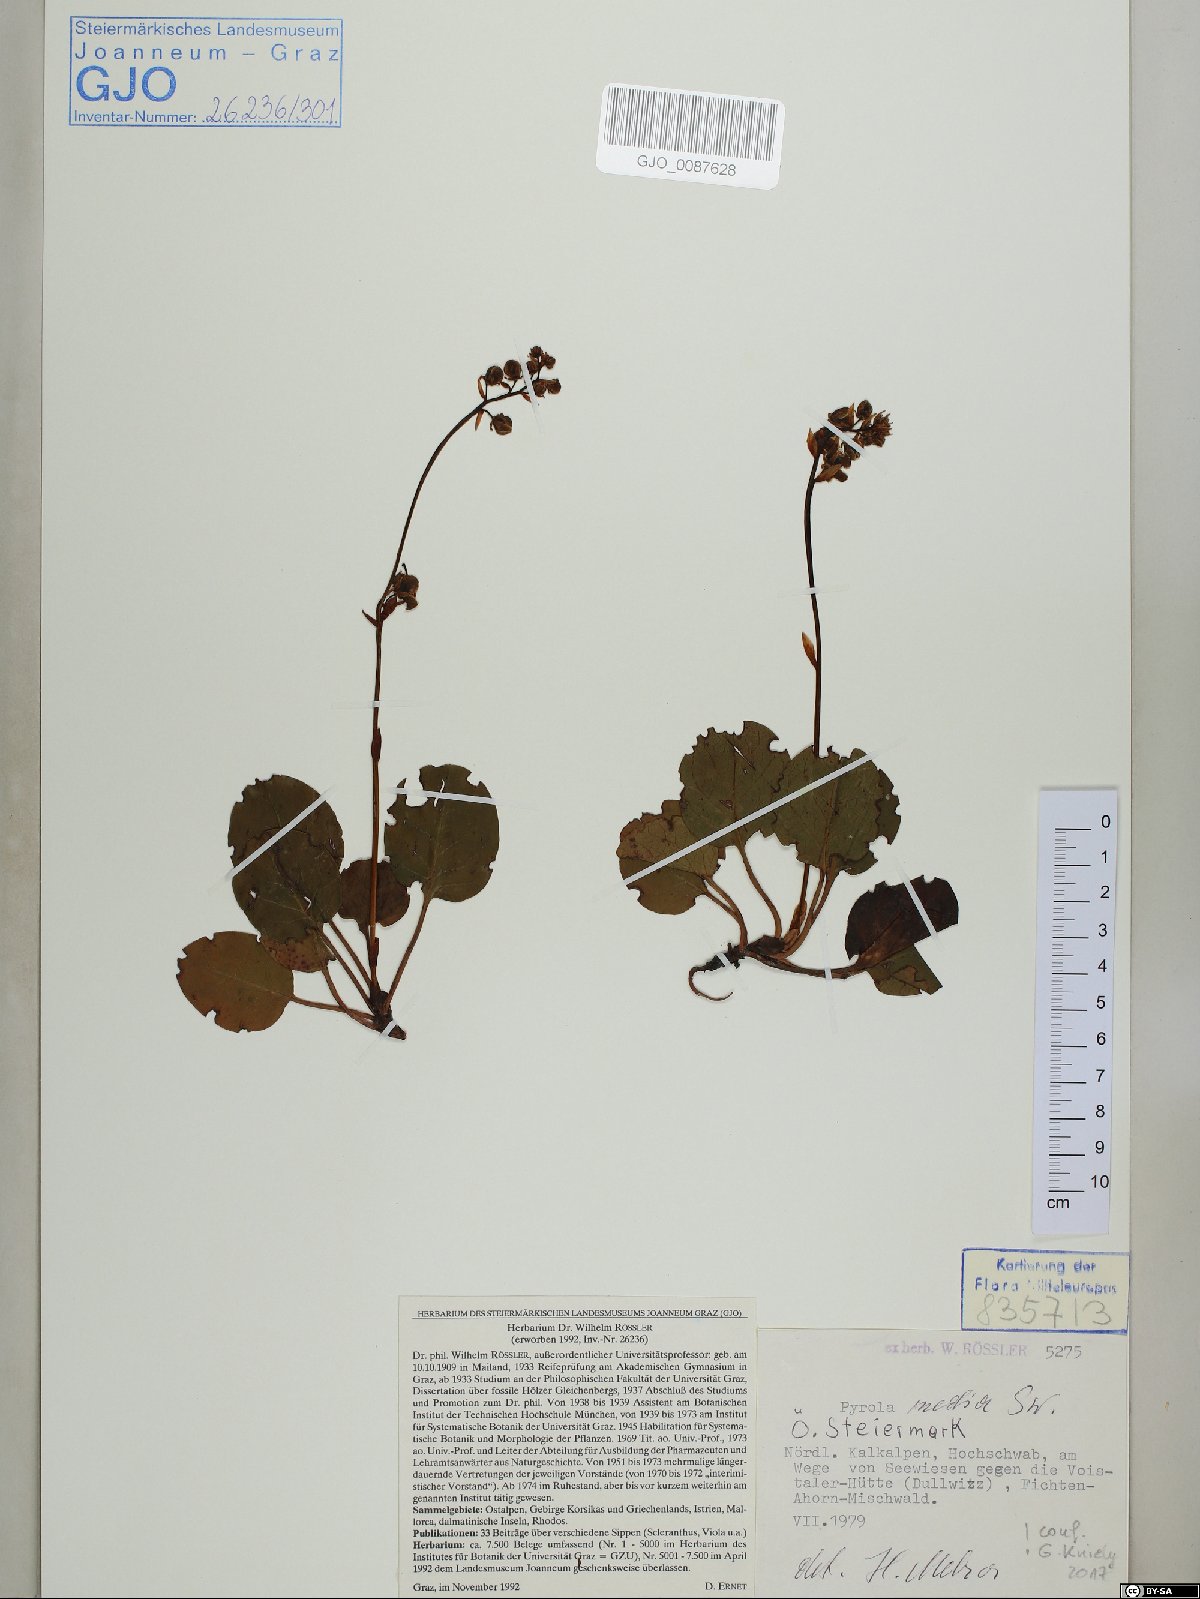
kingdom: Plantae
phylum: Tracheophyta
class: Magnoliopsida
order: Ericales
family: Ericaceae
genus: Pyrola
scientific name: Pyrola media
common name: Intermediate wintergreen
